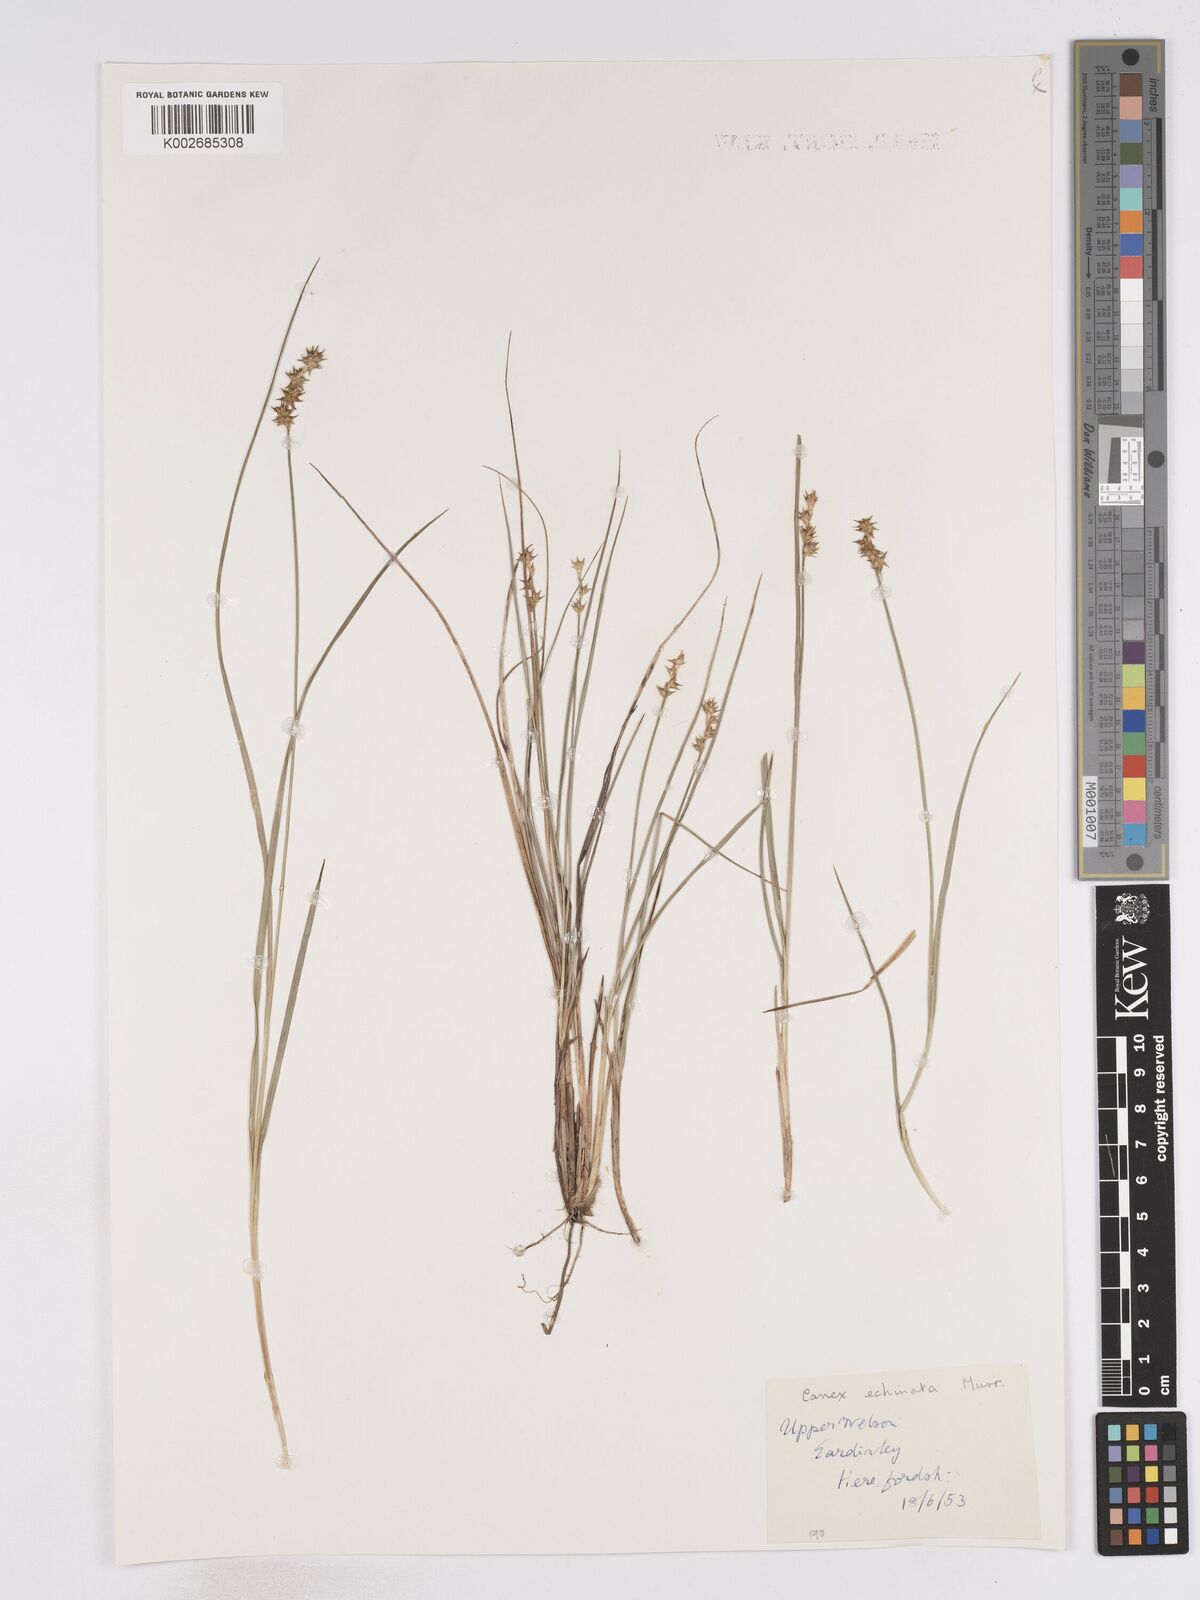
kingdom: Plantae
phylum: Tracheophyta
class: Liliopsida
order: Poales
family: Cyperaceae
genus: Carex
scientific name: Carex echinata
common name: Star sedge
